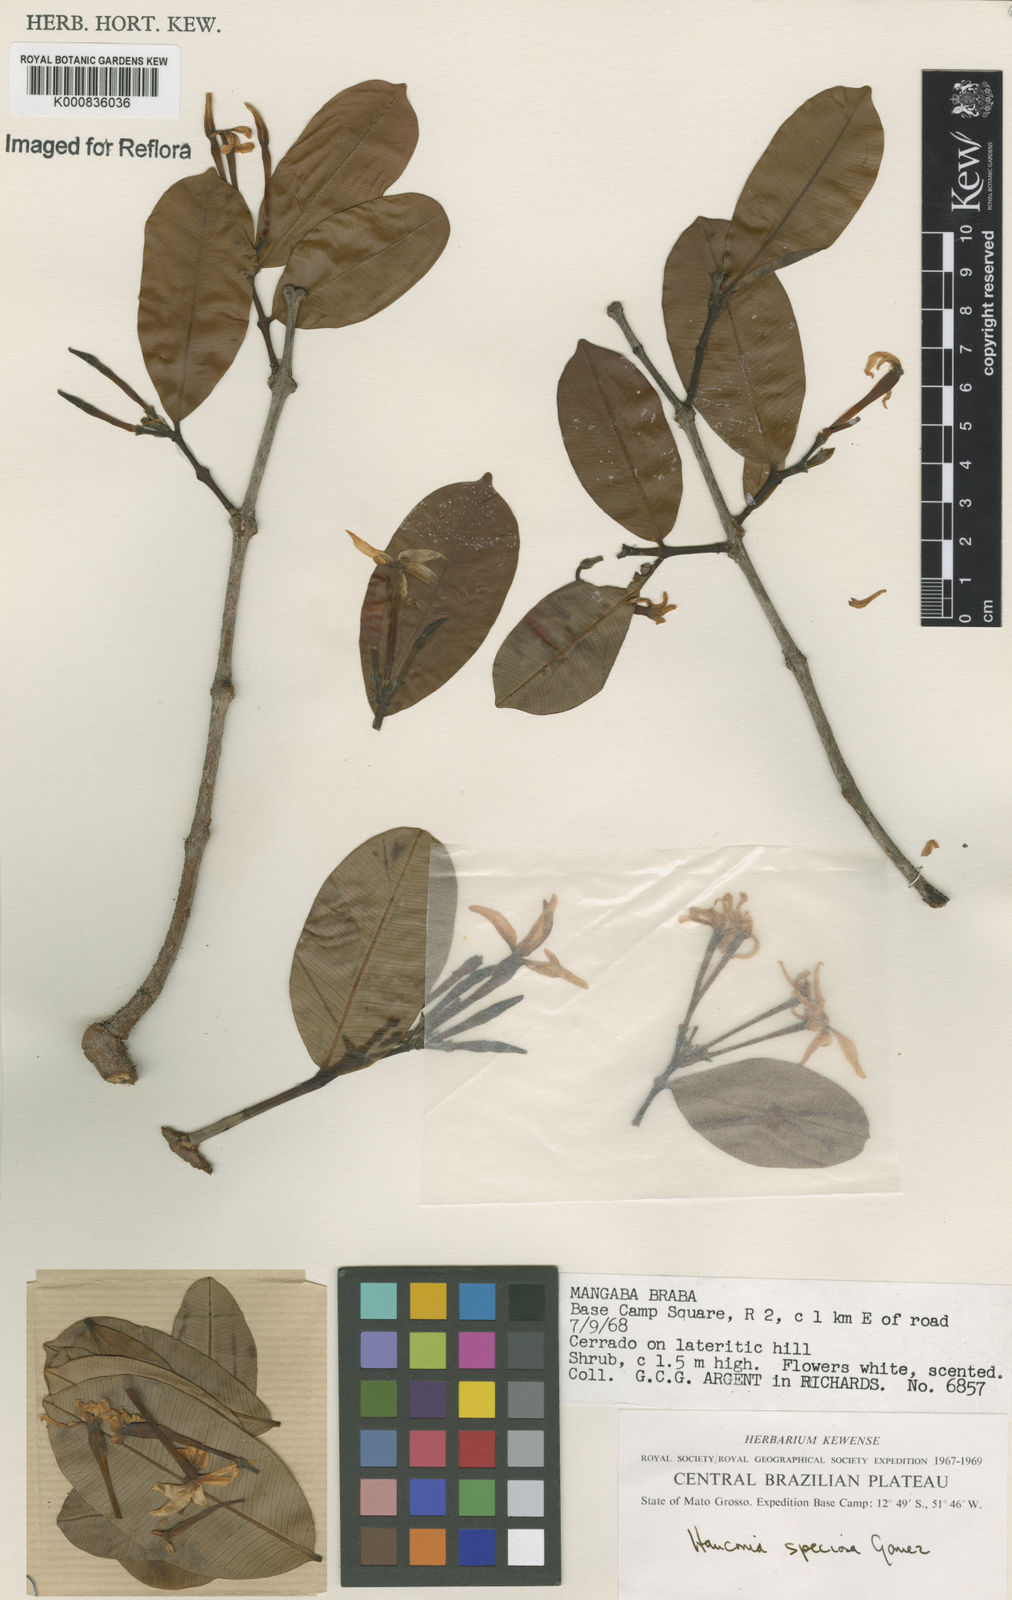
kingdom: Plantae
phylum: Tracheophyta
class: Magnoliopsida
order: Gentianales
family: Apocynaceae
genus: Hancornia
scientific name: Hancornia speciosa
